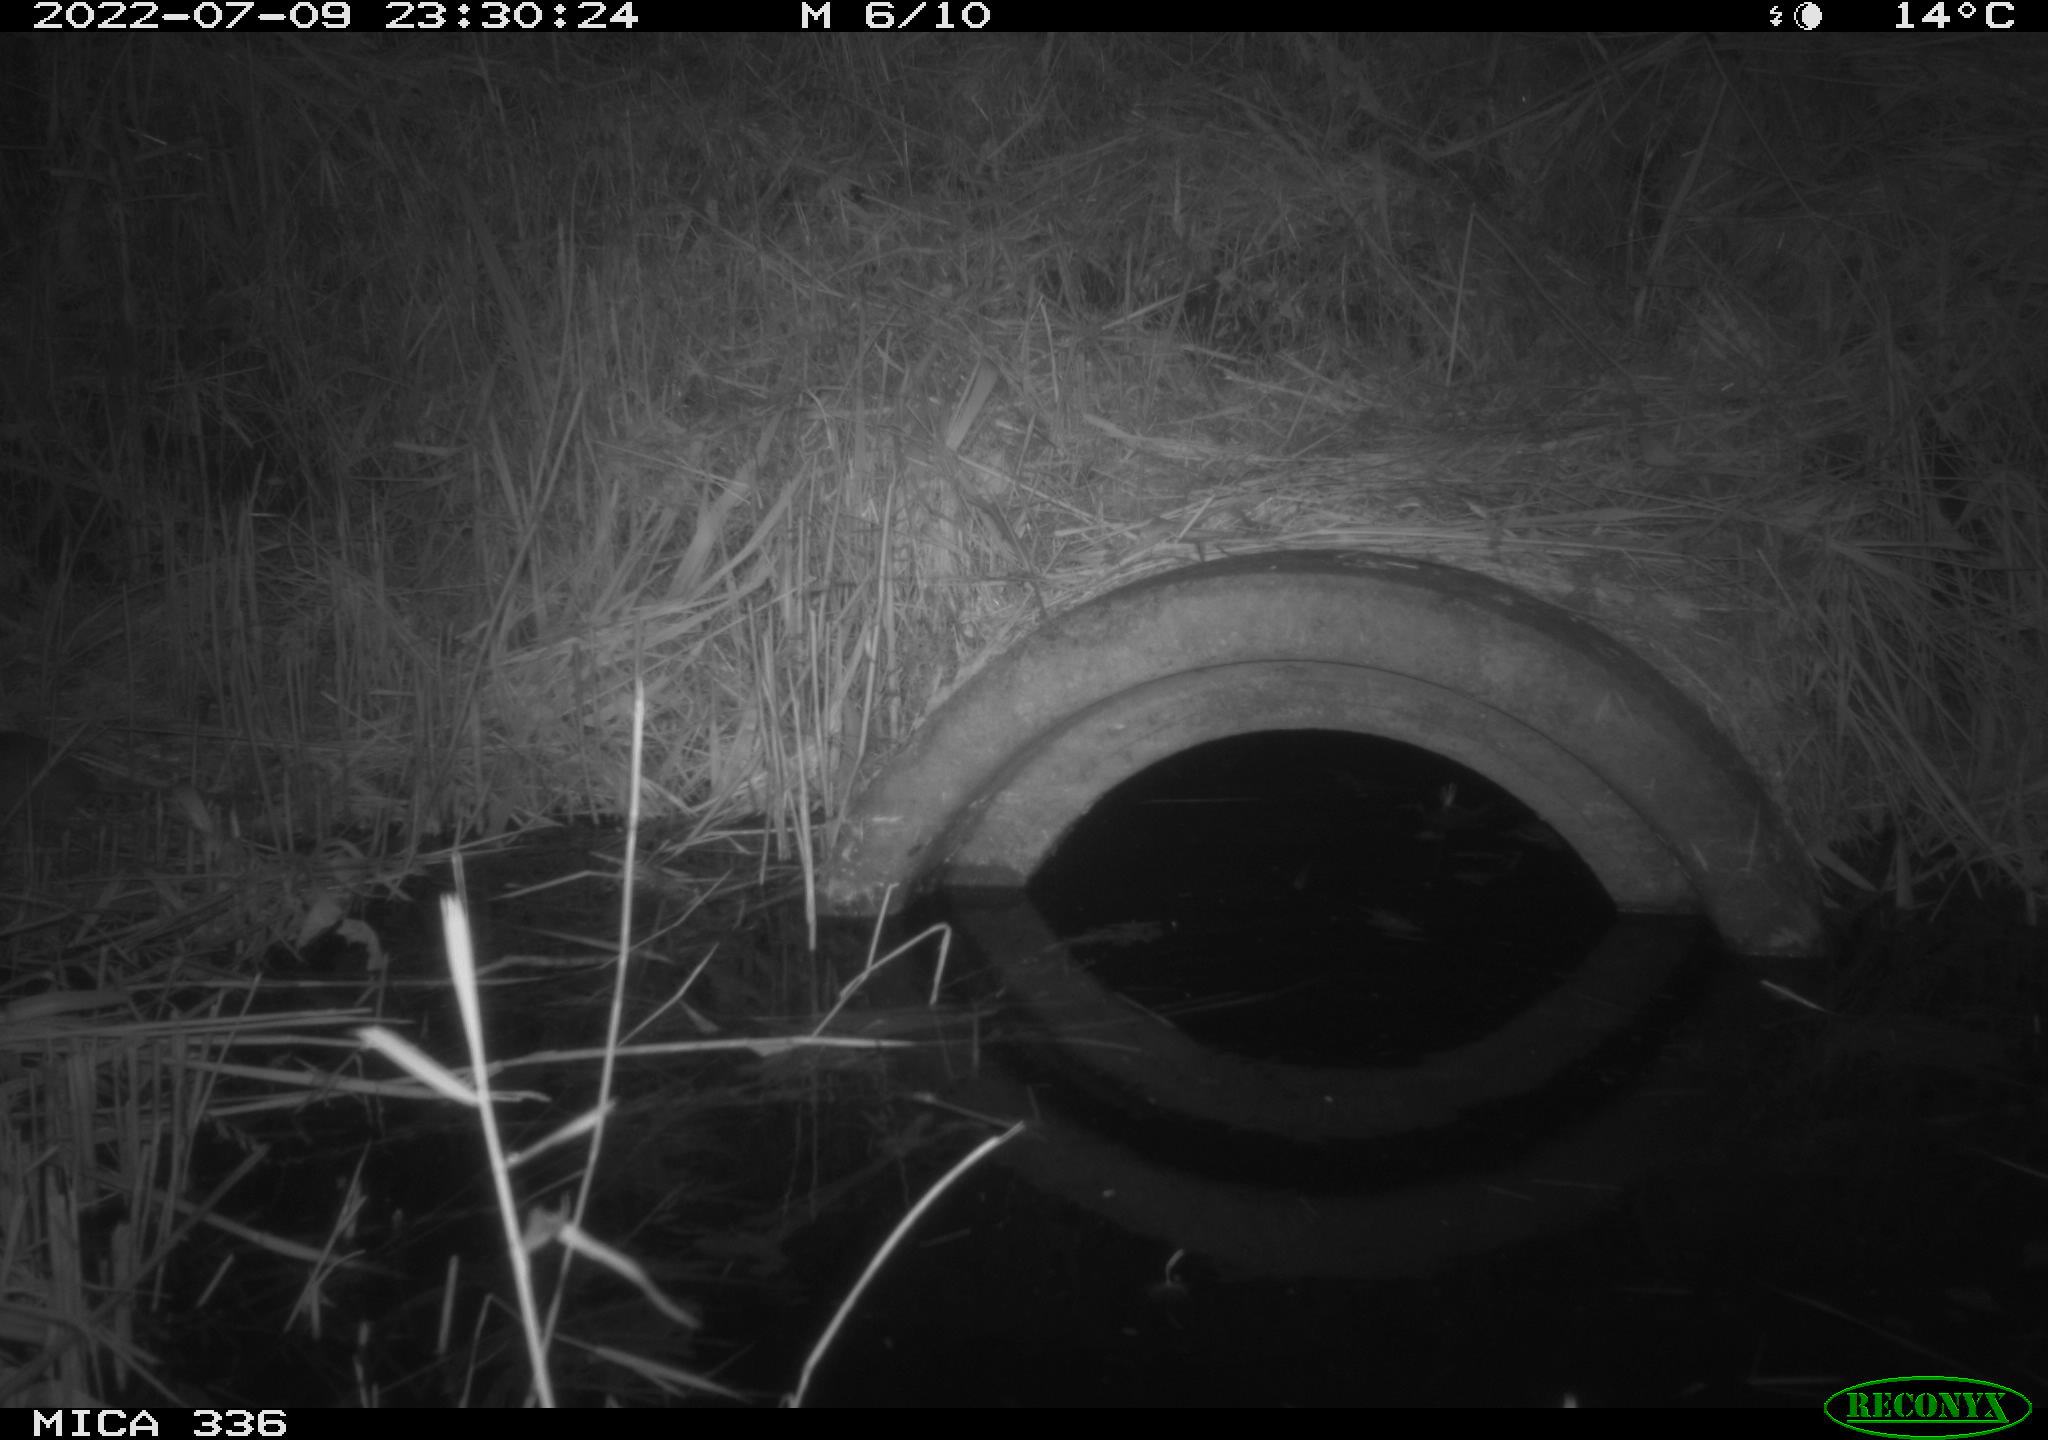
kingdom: Animalia
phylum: Chordata
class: Mammalia
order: Rodentia
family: Muridae
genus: Rattus
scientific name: Rattus norvegicus
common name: Brown rat
